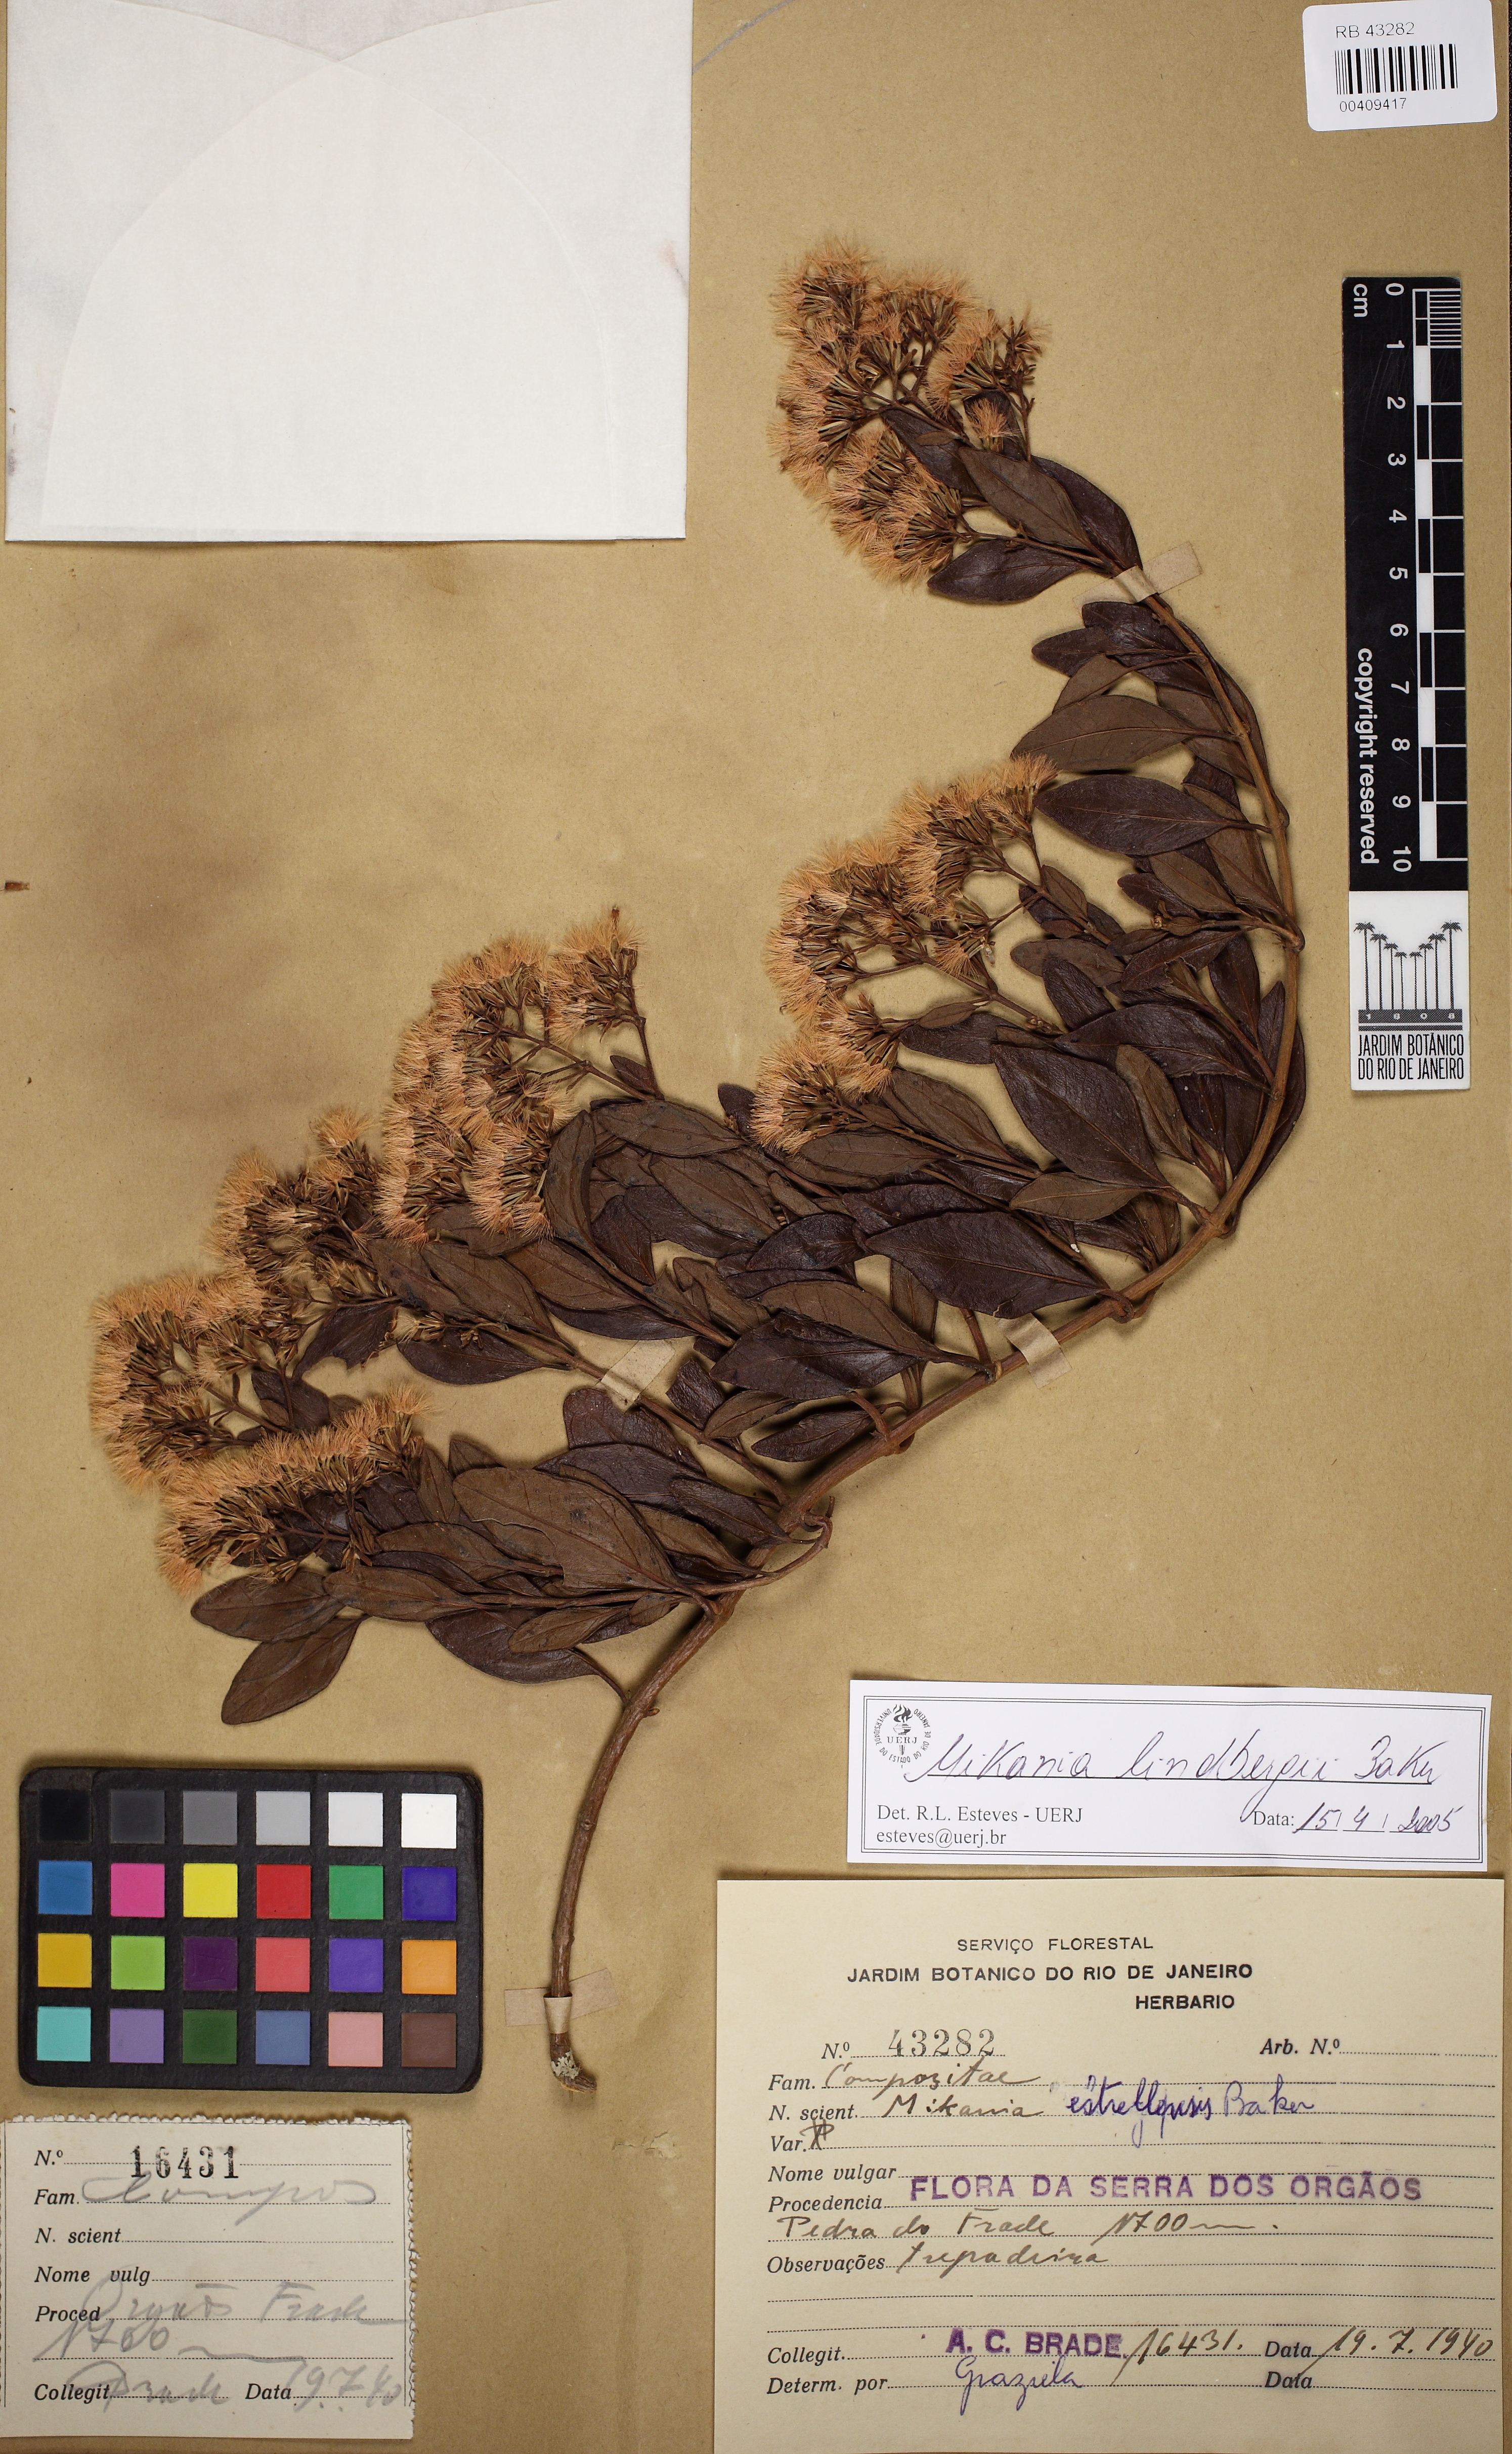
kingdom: Plantae
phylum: Tracheophyta
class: Magnoliopsida
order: Asterales
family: Asteraceae
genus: Mikania
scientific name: Mikania lindbergii
